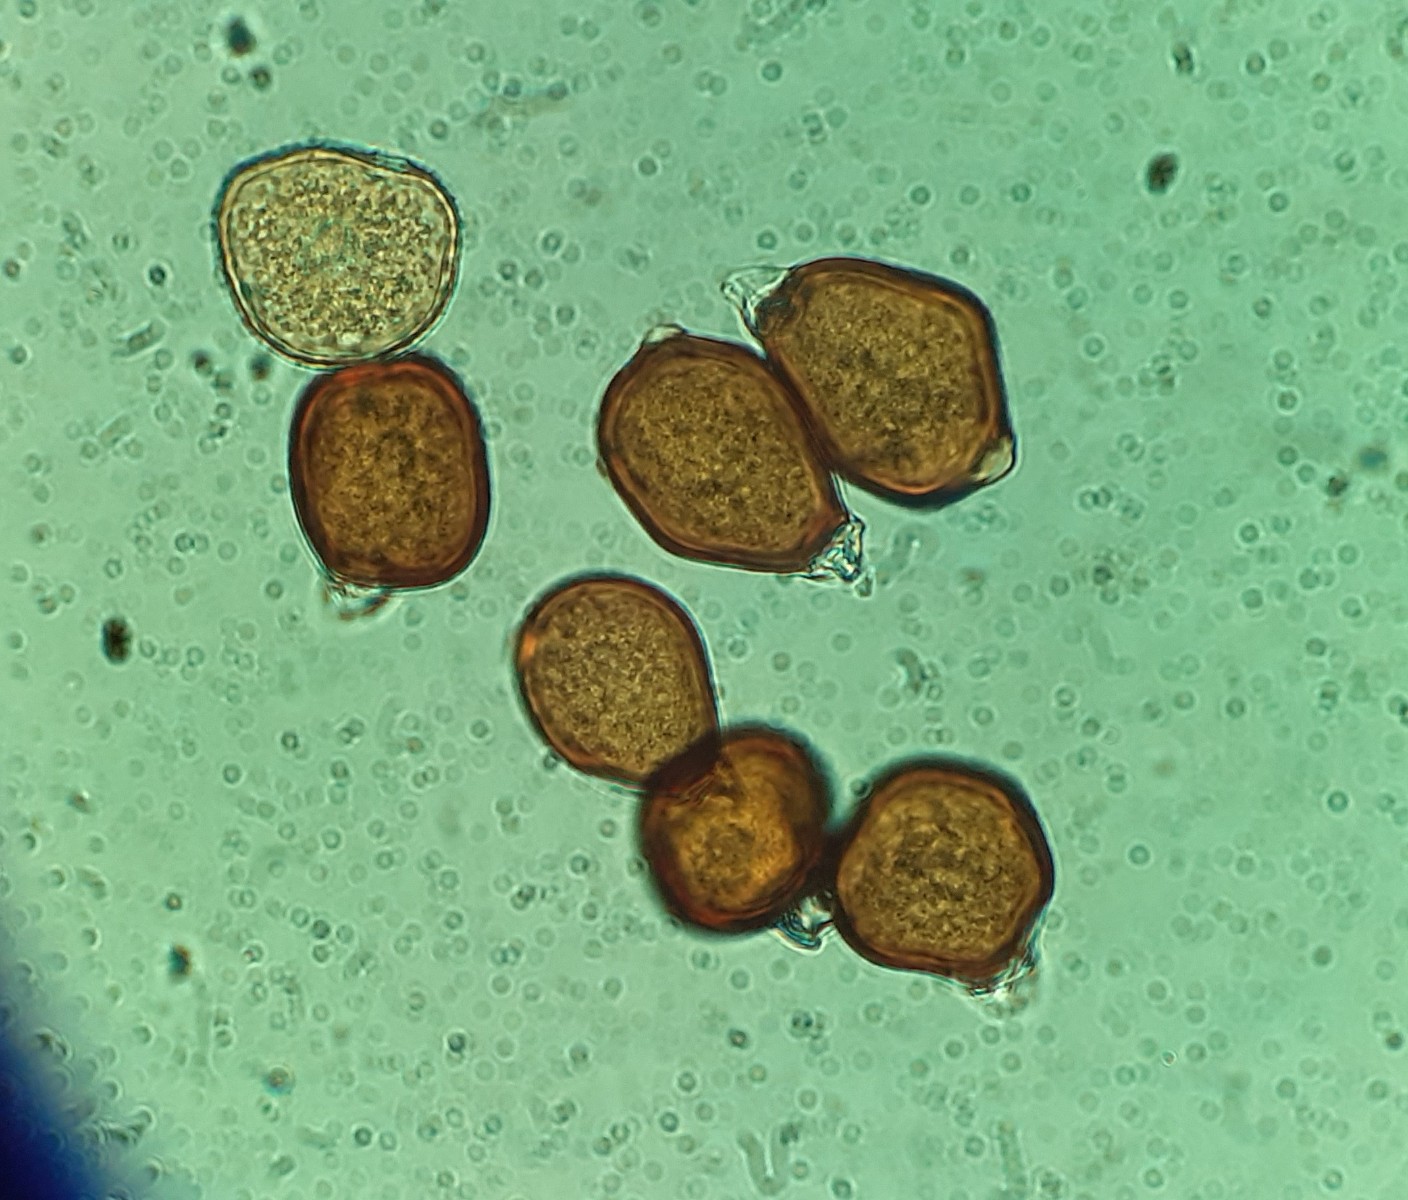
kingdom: Fungi
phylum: Basidiomycota
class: Pucciniomycetes
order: Pucciniales
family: Pucciniaceae
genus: Uromyces
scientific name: Uromyces rumicis
